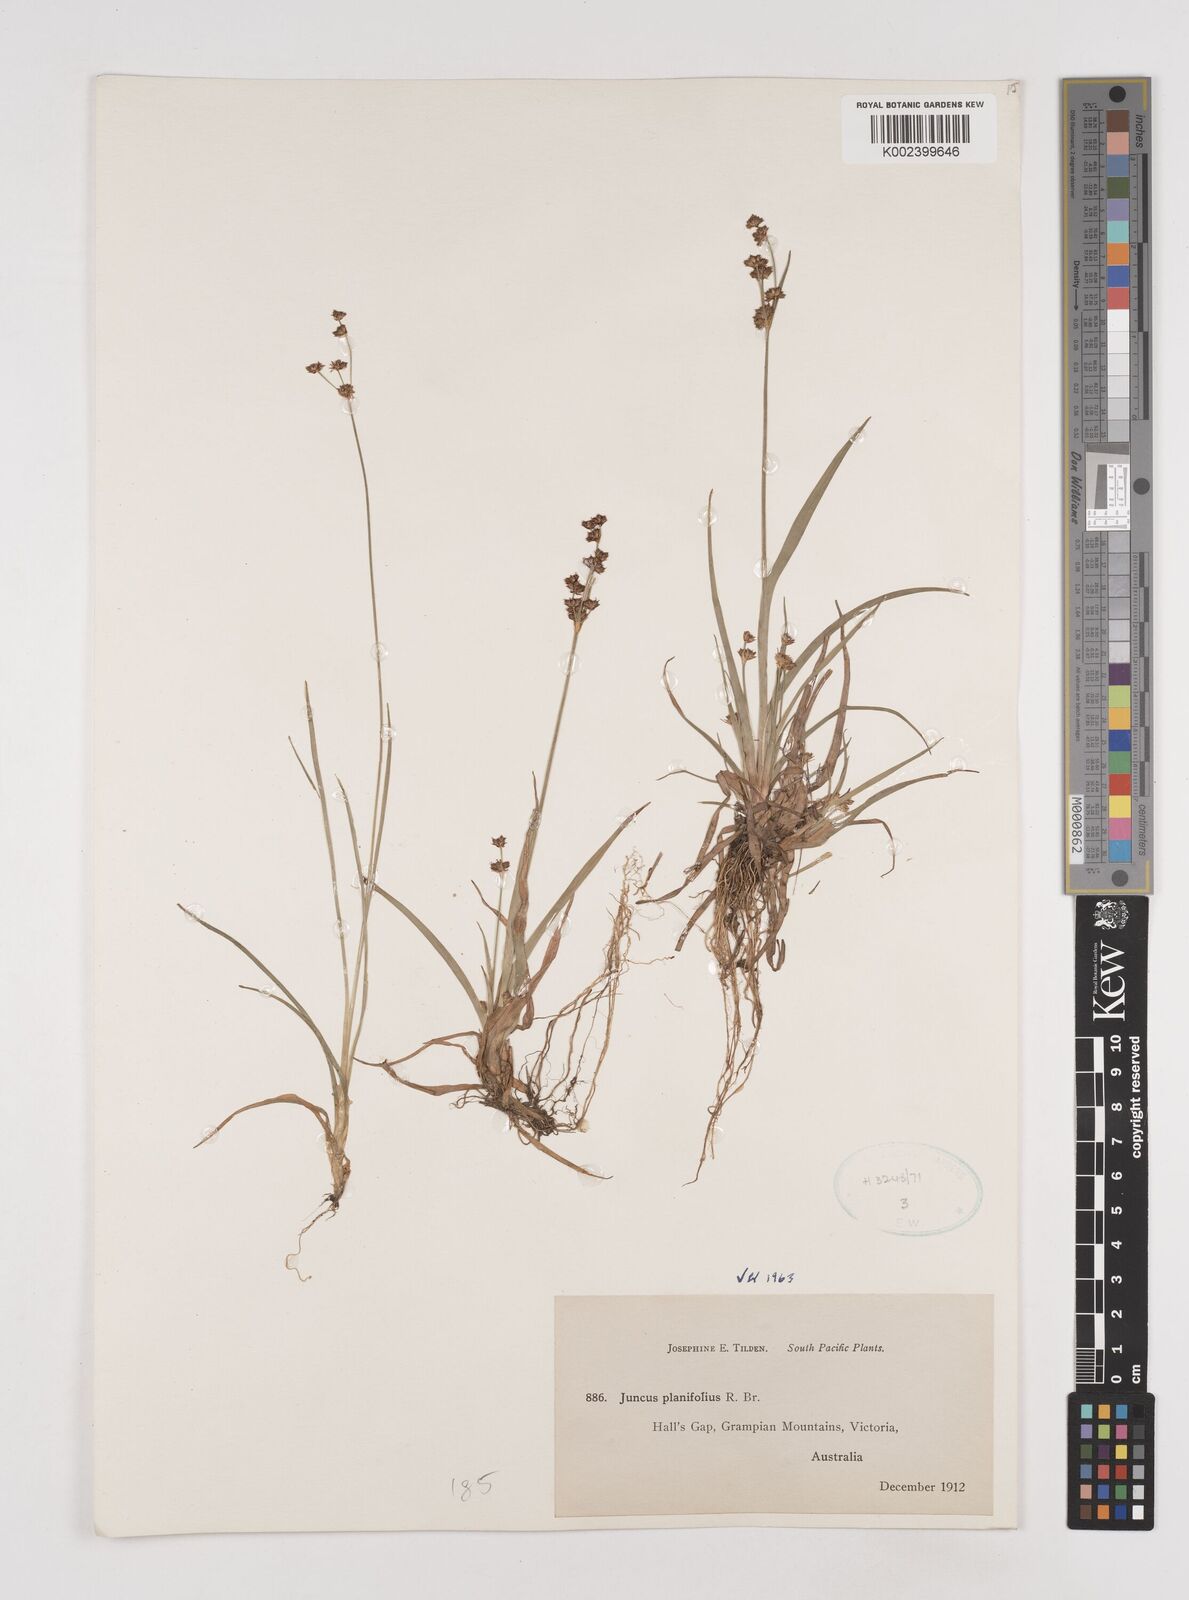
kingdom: Plantae
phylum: Tracheophyta
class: Liliopsida
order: Poales
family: Juncaceae
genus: Juncus
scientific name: Juncus planifolius
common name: Broadleaf rush
